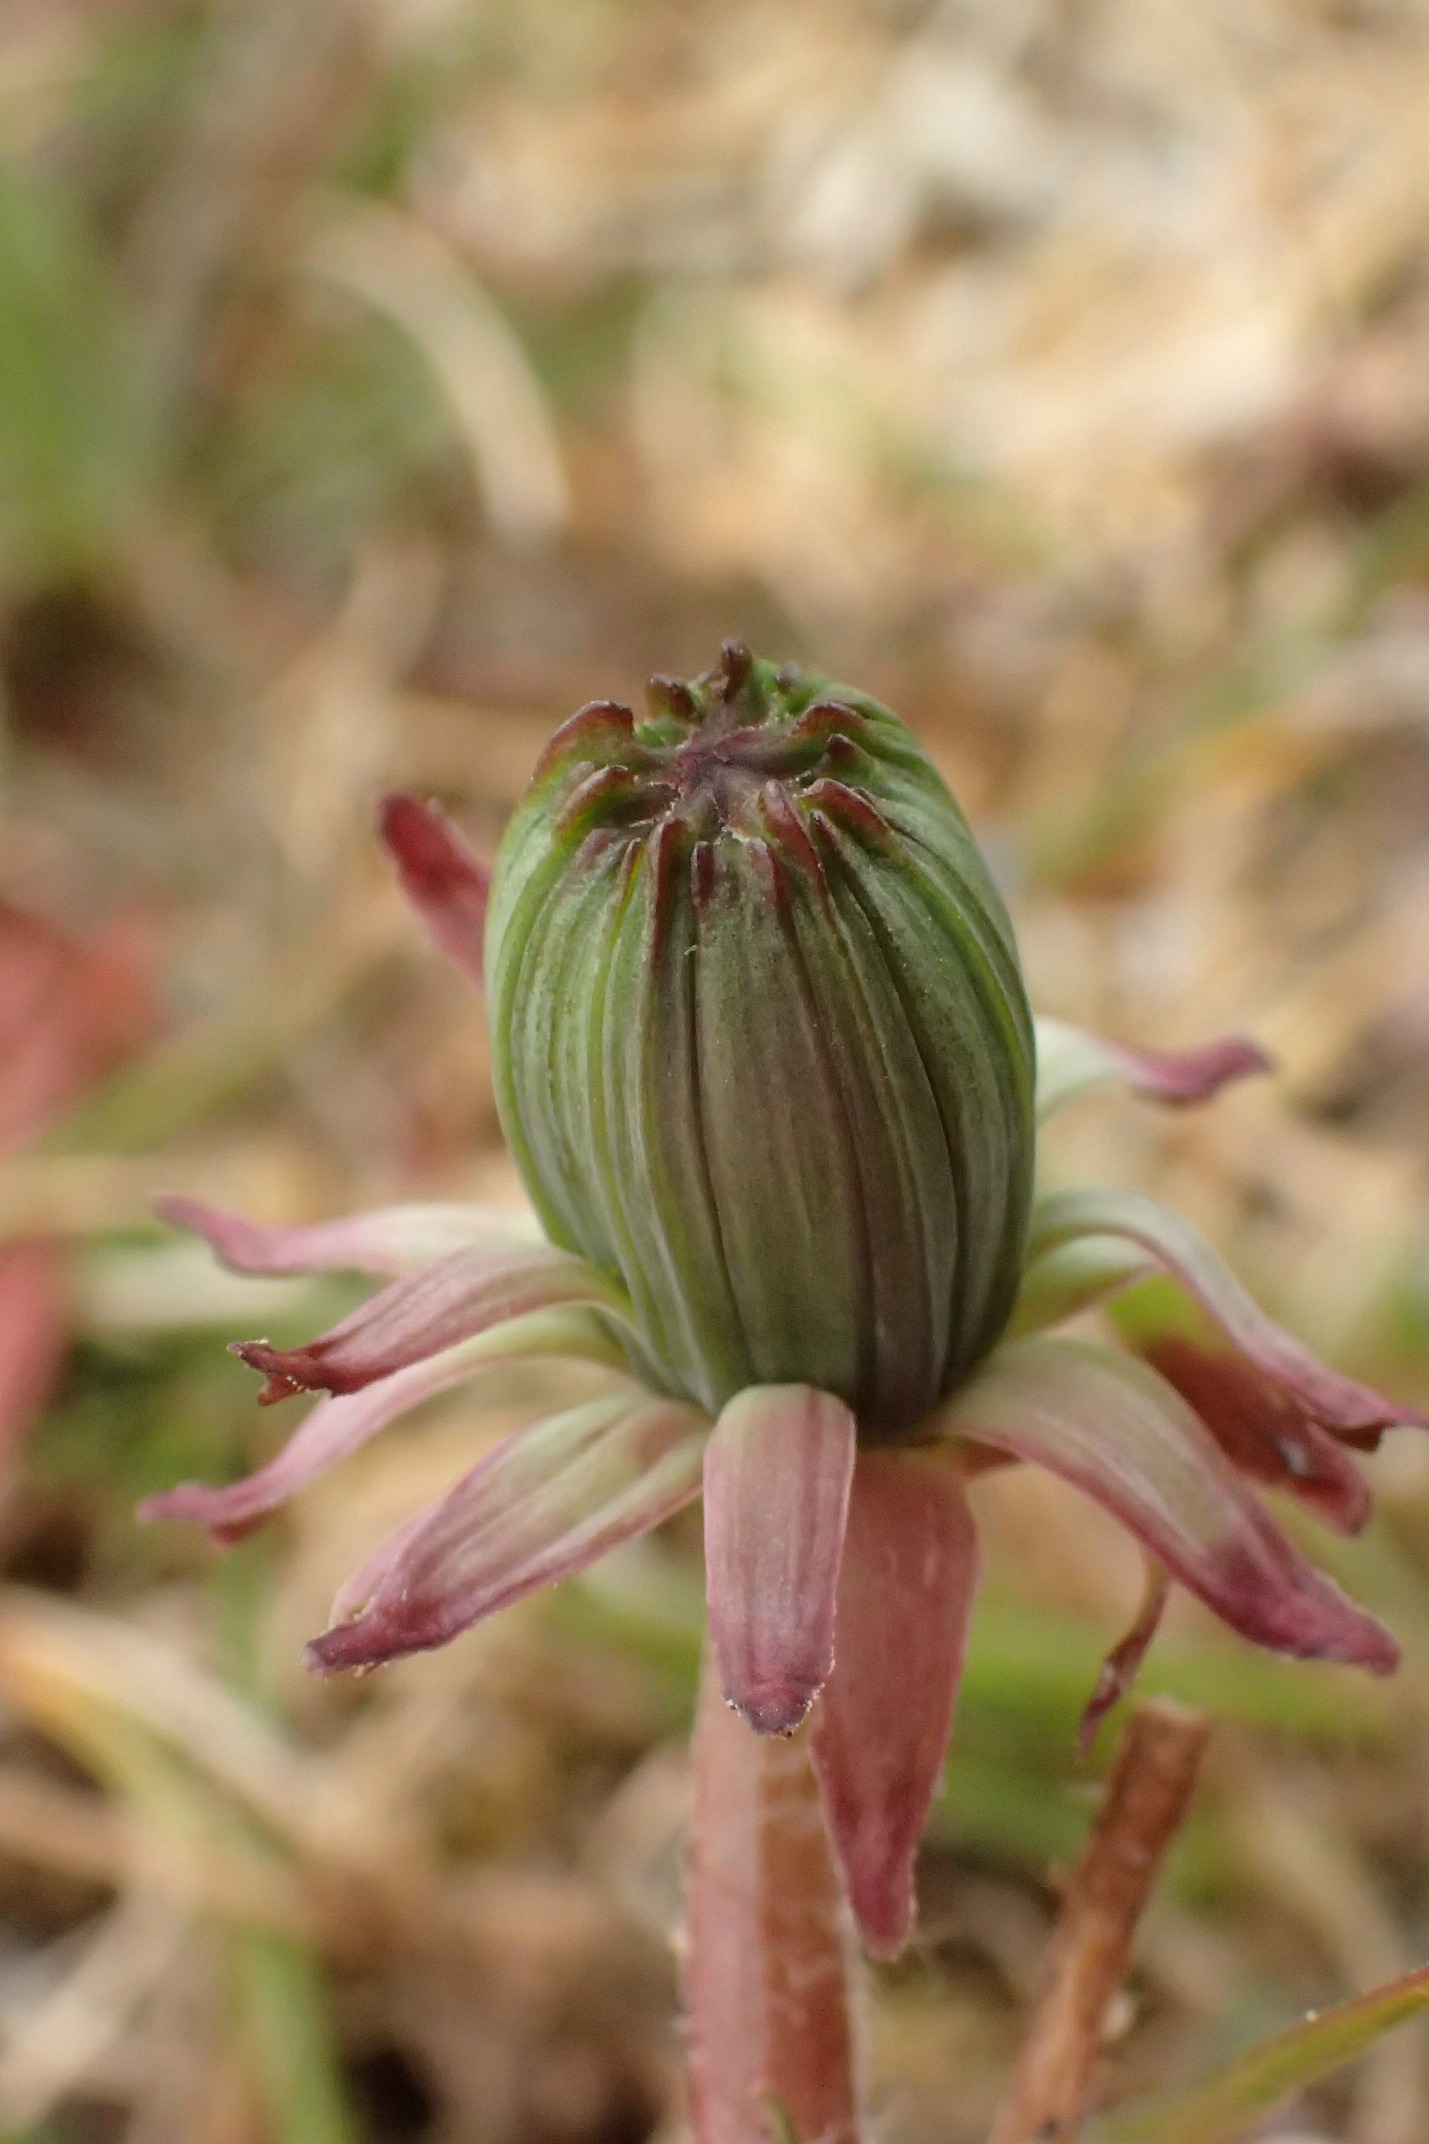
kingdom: Plantae
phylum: Tracheophyta
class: Magnoliopsida
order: Asterales
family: Asteraceae
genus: Taraxacum
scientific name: Taraxacum brachyglossum
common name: Mørk sandmælkebøtte
